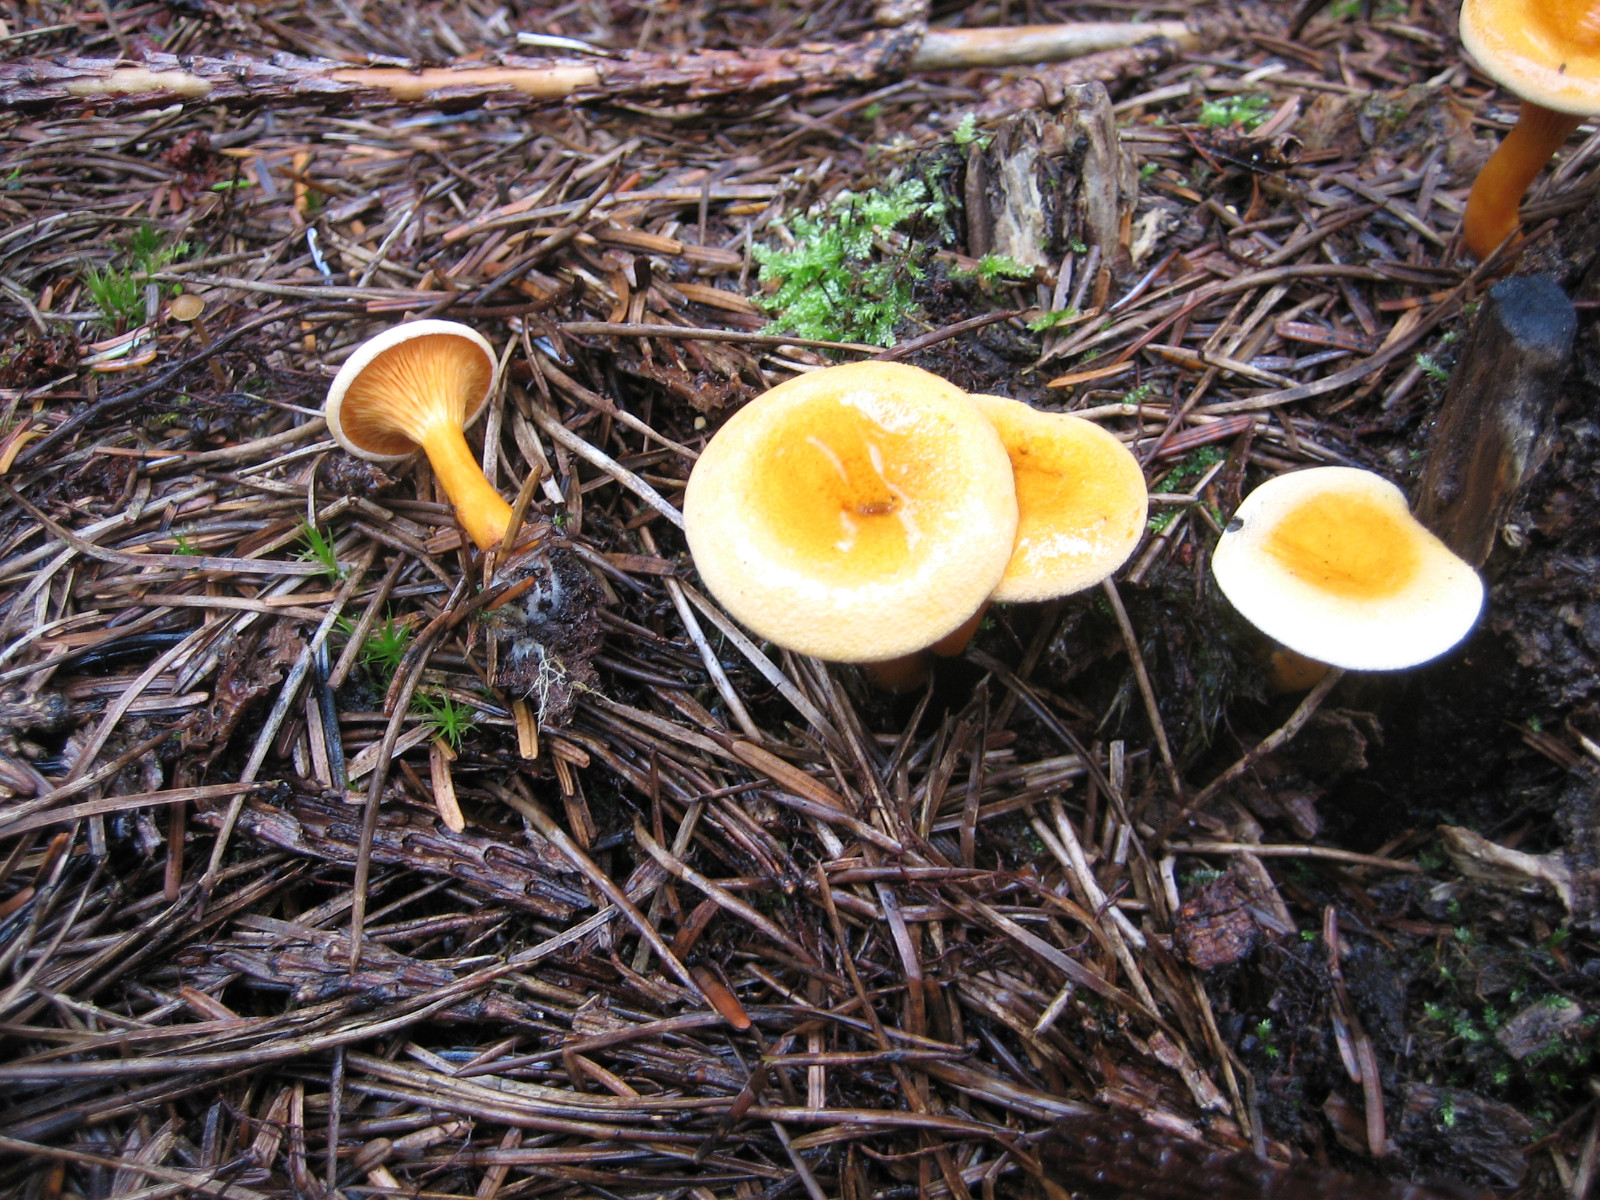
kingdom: Fungi
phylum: Basidiomycota
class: Agaricomycetes
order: Boletales
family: Hygrophoropsidaceae
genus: Hygrophoropsis
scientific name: Hygrophoropsis aurantiaca
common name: almindelig orangekantarel
